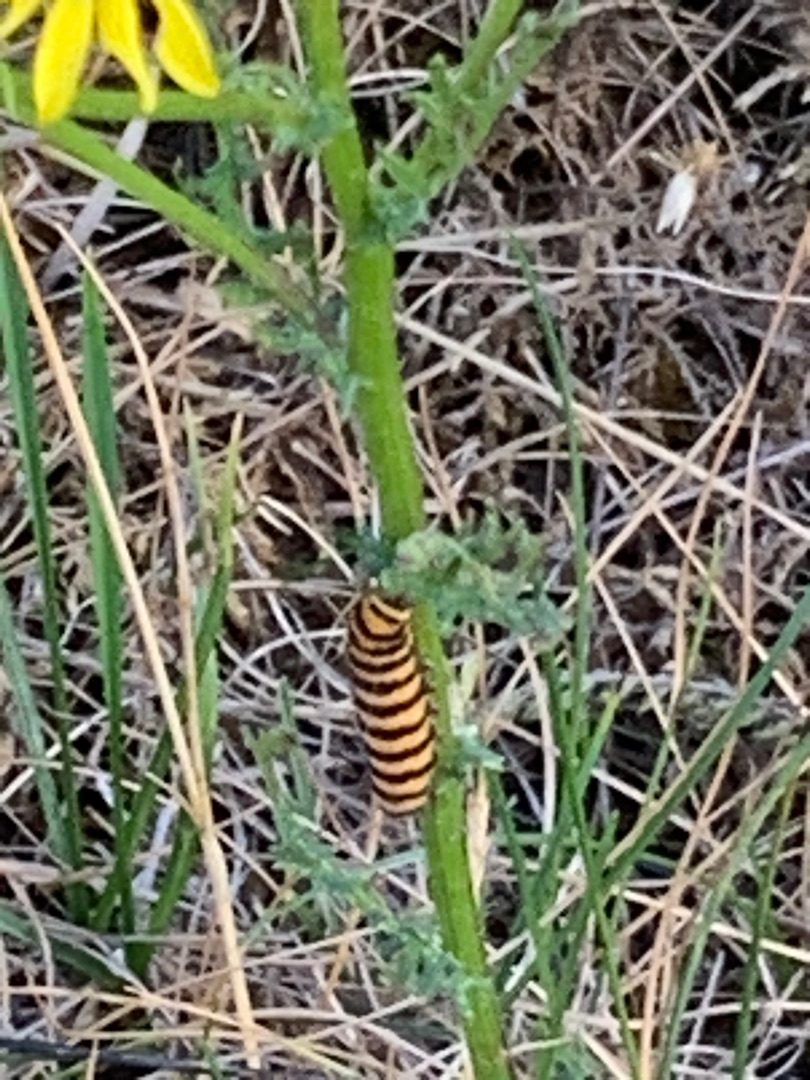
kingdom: Animalia
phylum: Arthropoda
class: Insecta
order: Lepidoptera
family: Erebidae
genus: Tyria
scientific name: Tyria jacobaeae
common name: Blodplet
